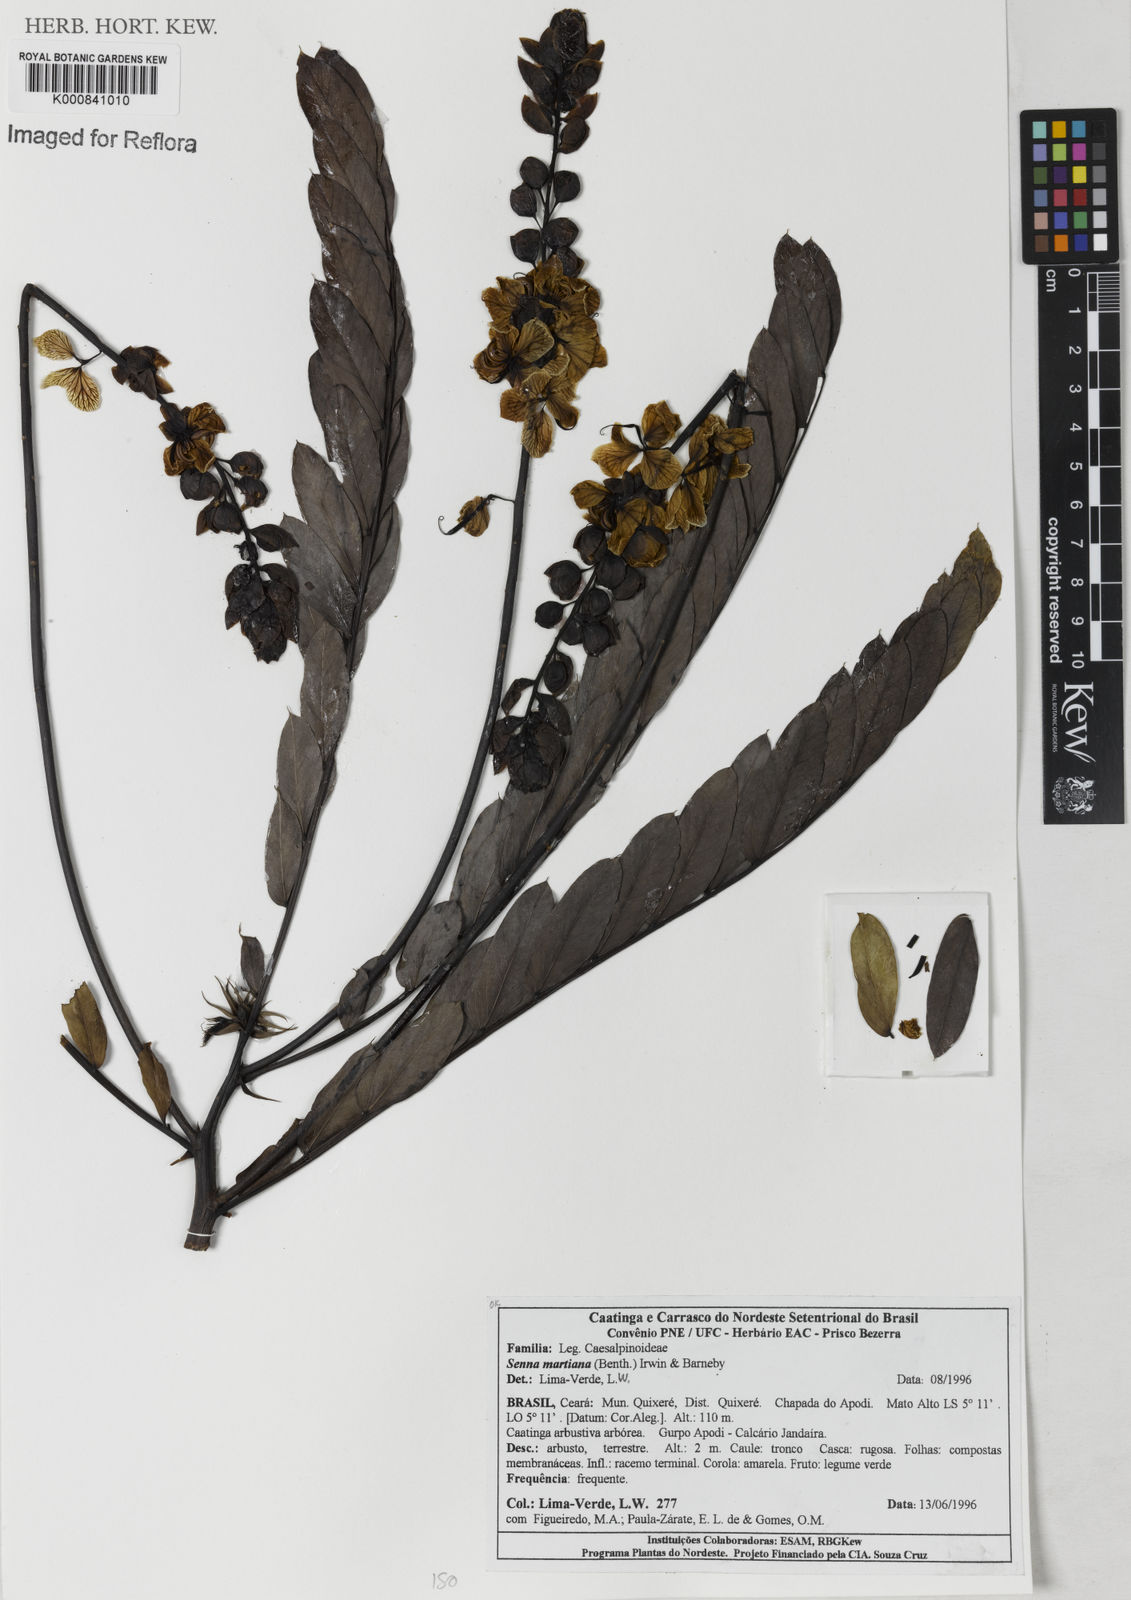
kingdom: Plantae
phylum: Tracheophyta
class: Magnoliopsida
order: Fabales
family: Fabaceae
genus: Senna
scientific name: Senna martiana
